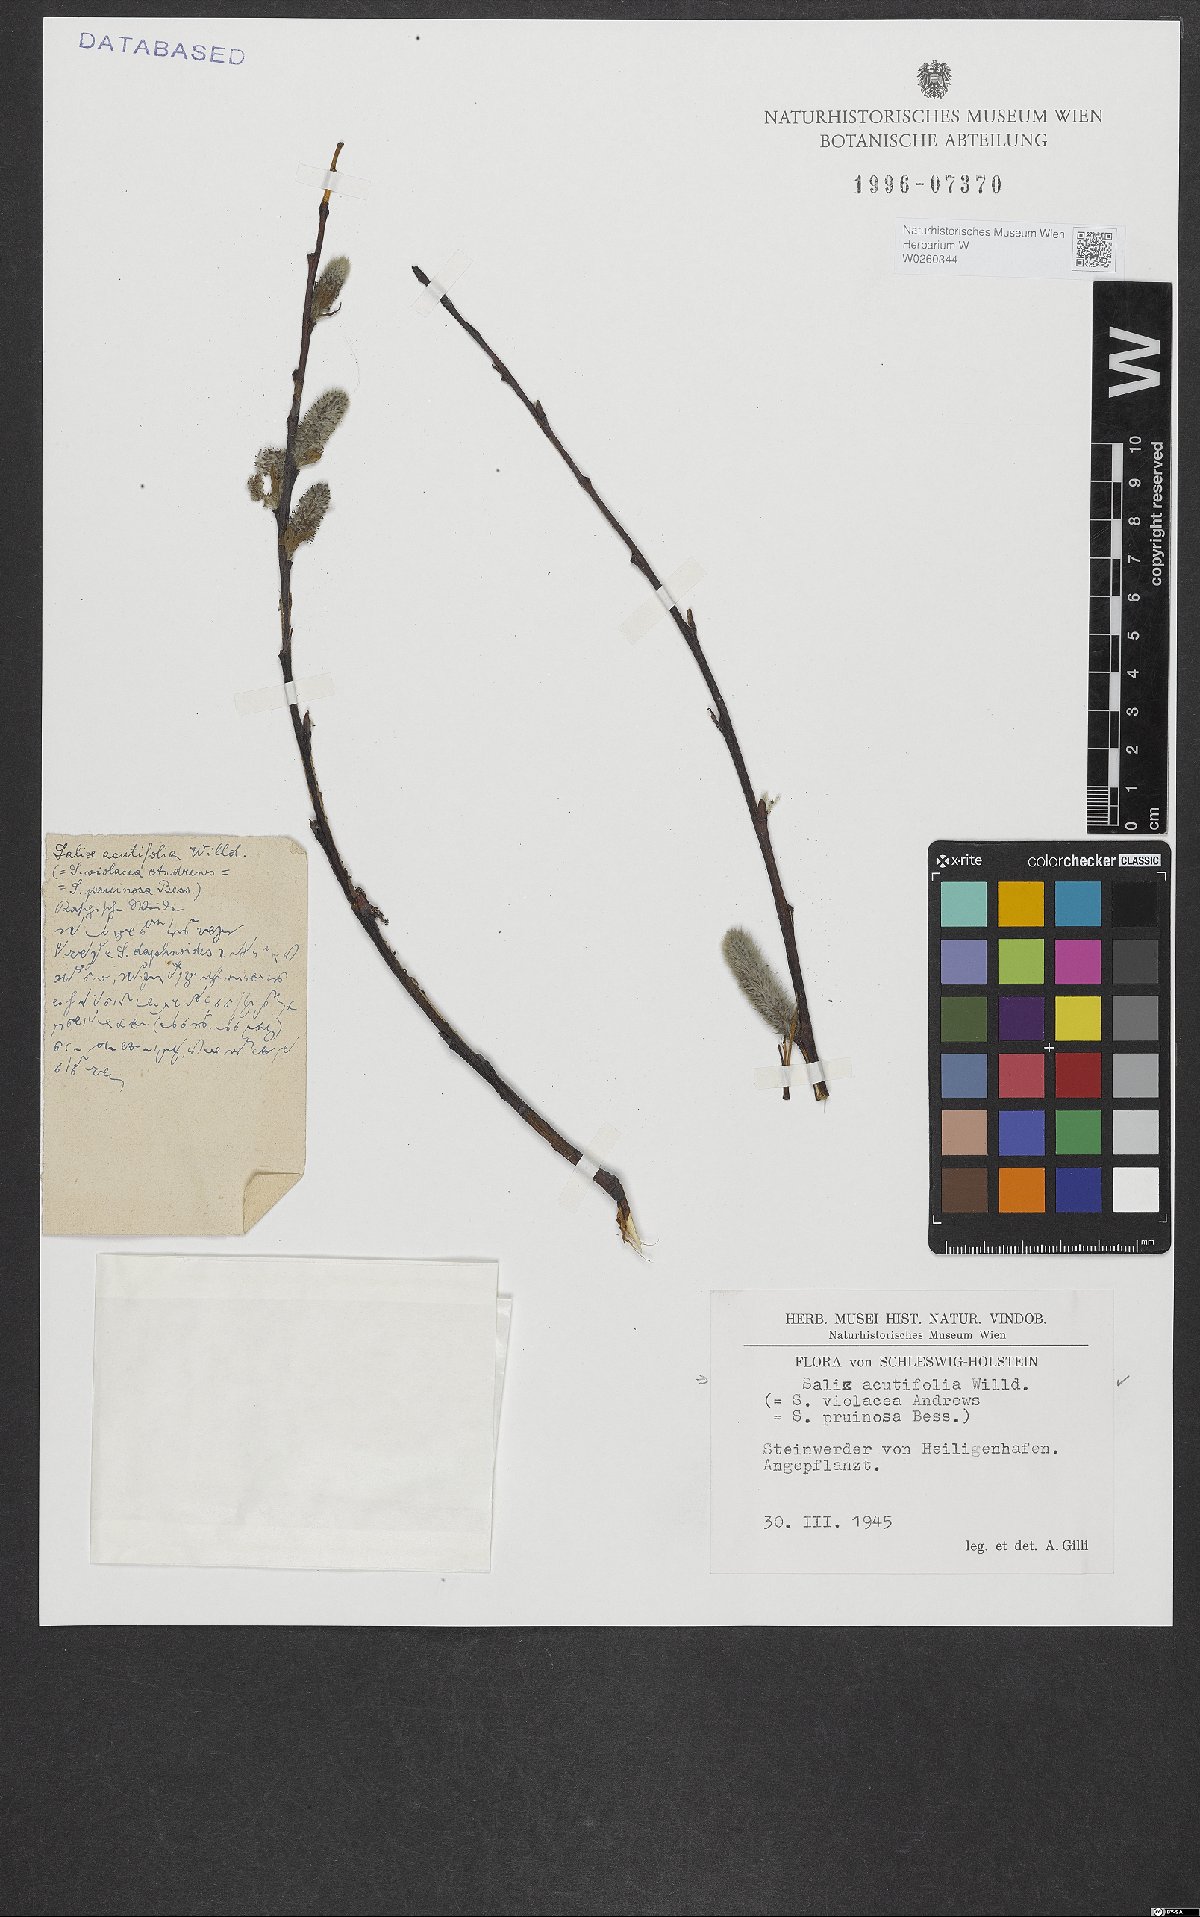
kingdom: Plantae
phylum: Tracheophyta
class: Magnoliopsida
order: Malpighiales
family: Salicaceae
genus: Salix
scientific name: Salix acutifolia
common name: Siberian violet-willow
